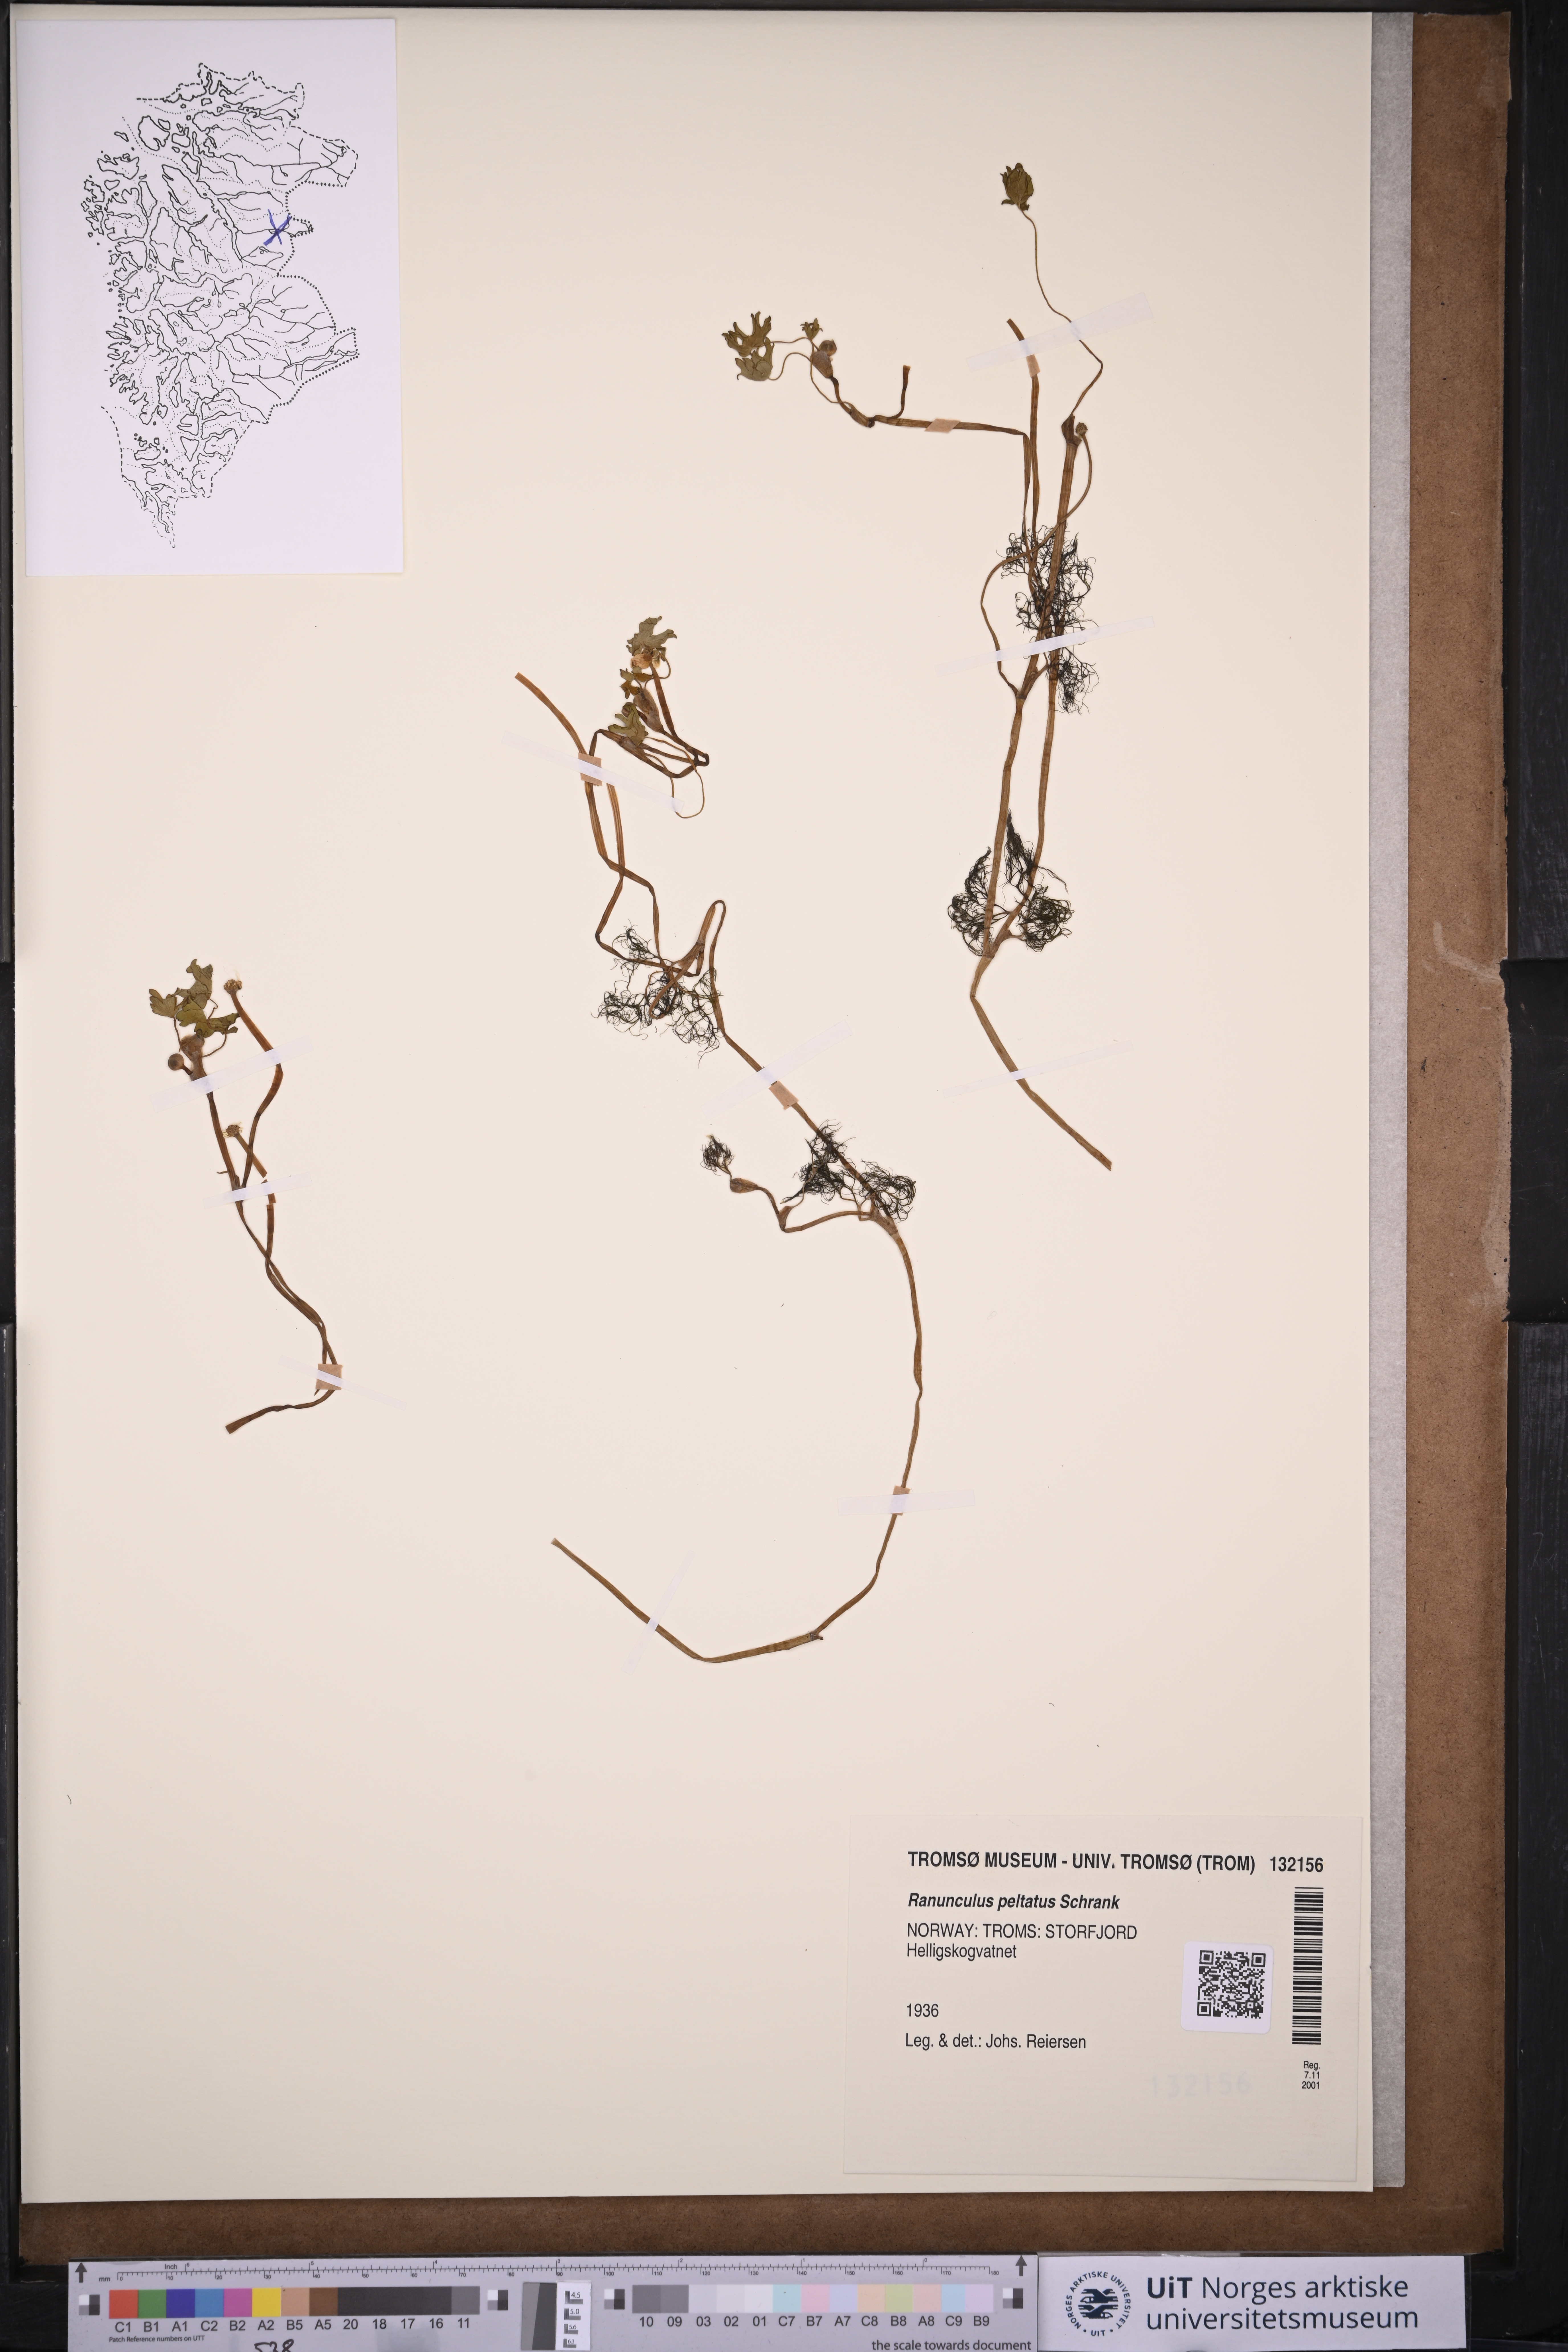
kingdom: Plantae
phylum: Tracheophyta
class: Magnoliopsida
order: Ranunculales
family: Ranunculaceae
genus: Ranunculus
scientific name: Ranunculus peltatus
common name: Pond water-crowfoot
